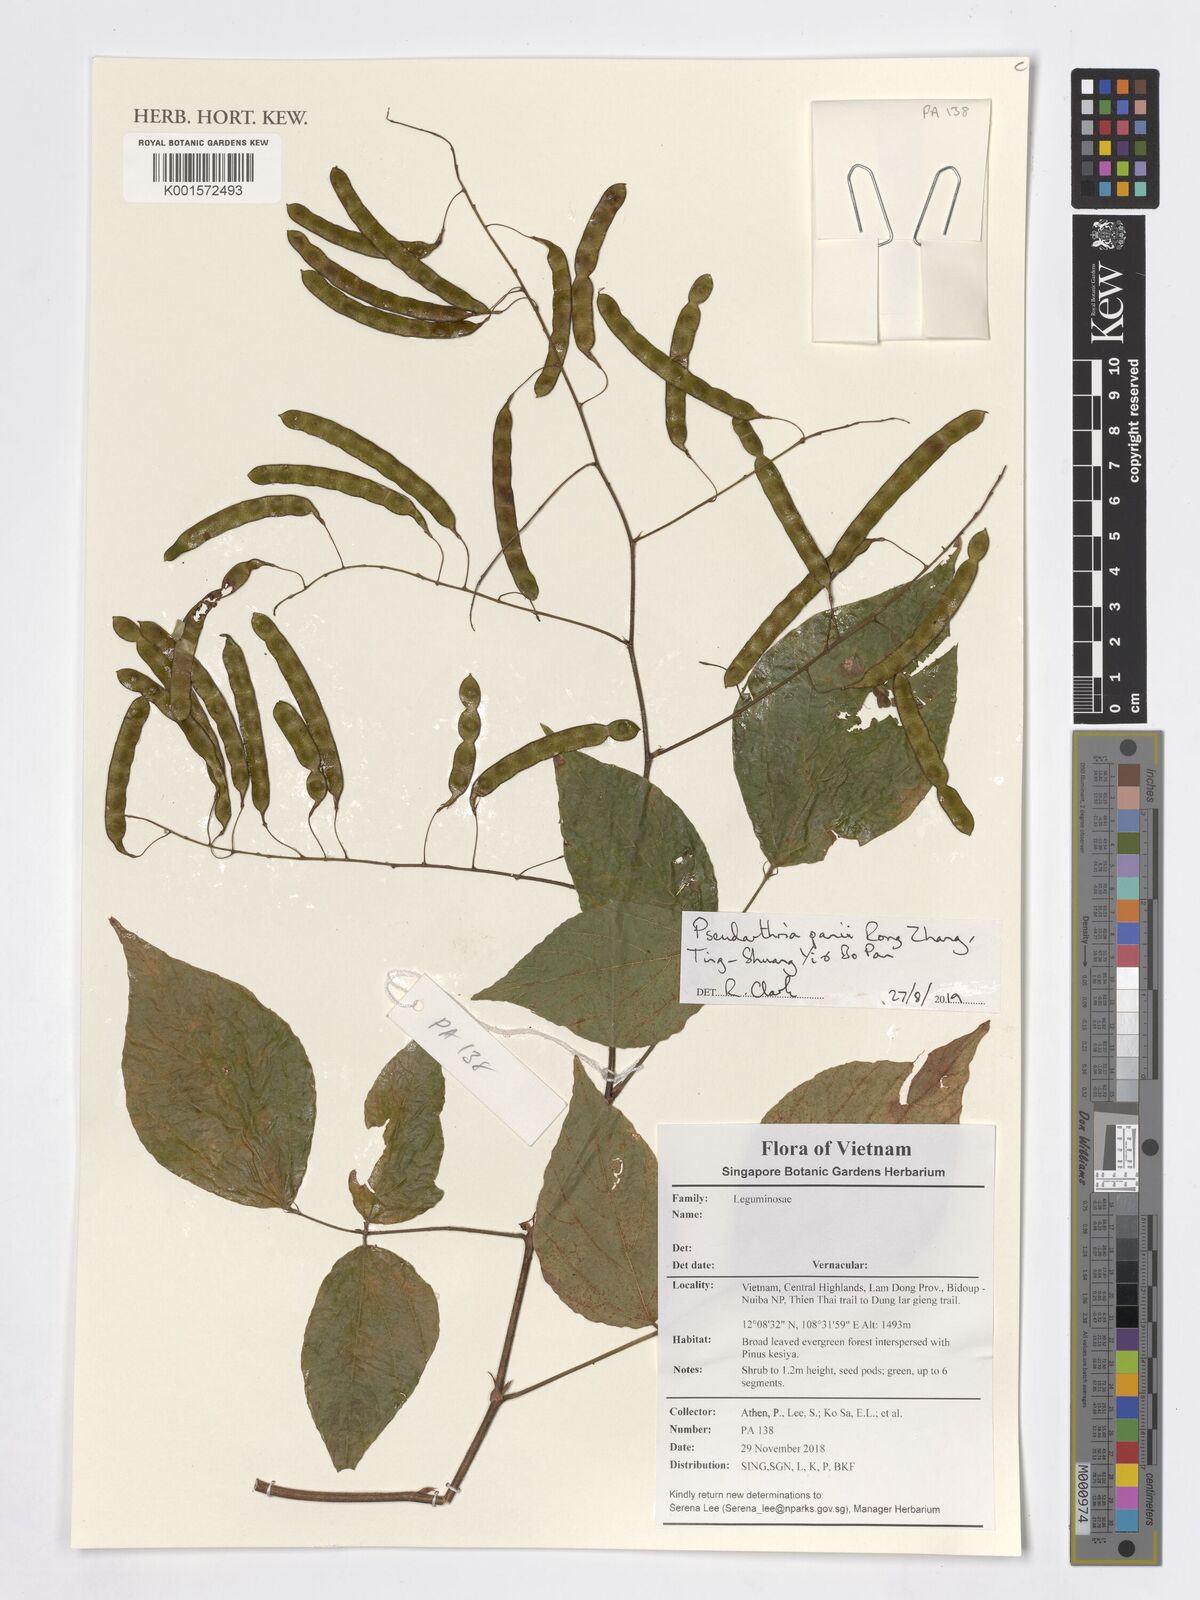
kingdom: Plantae
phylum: Tracheophyta
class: Magnoliopsida
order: Fabales
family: Fabaceae
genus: Pseudarthria
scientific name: Pseudarthria panii bis
